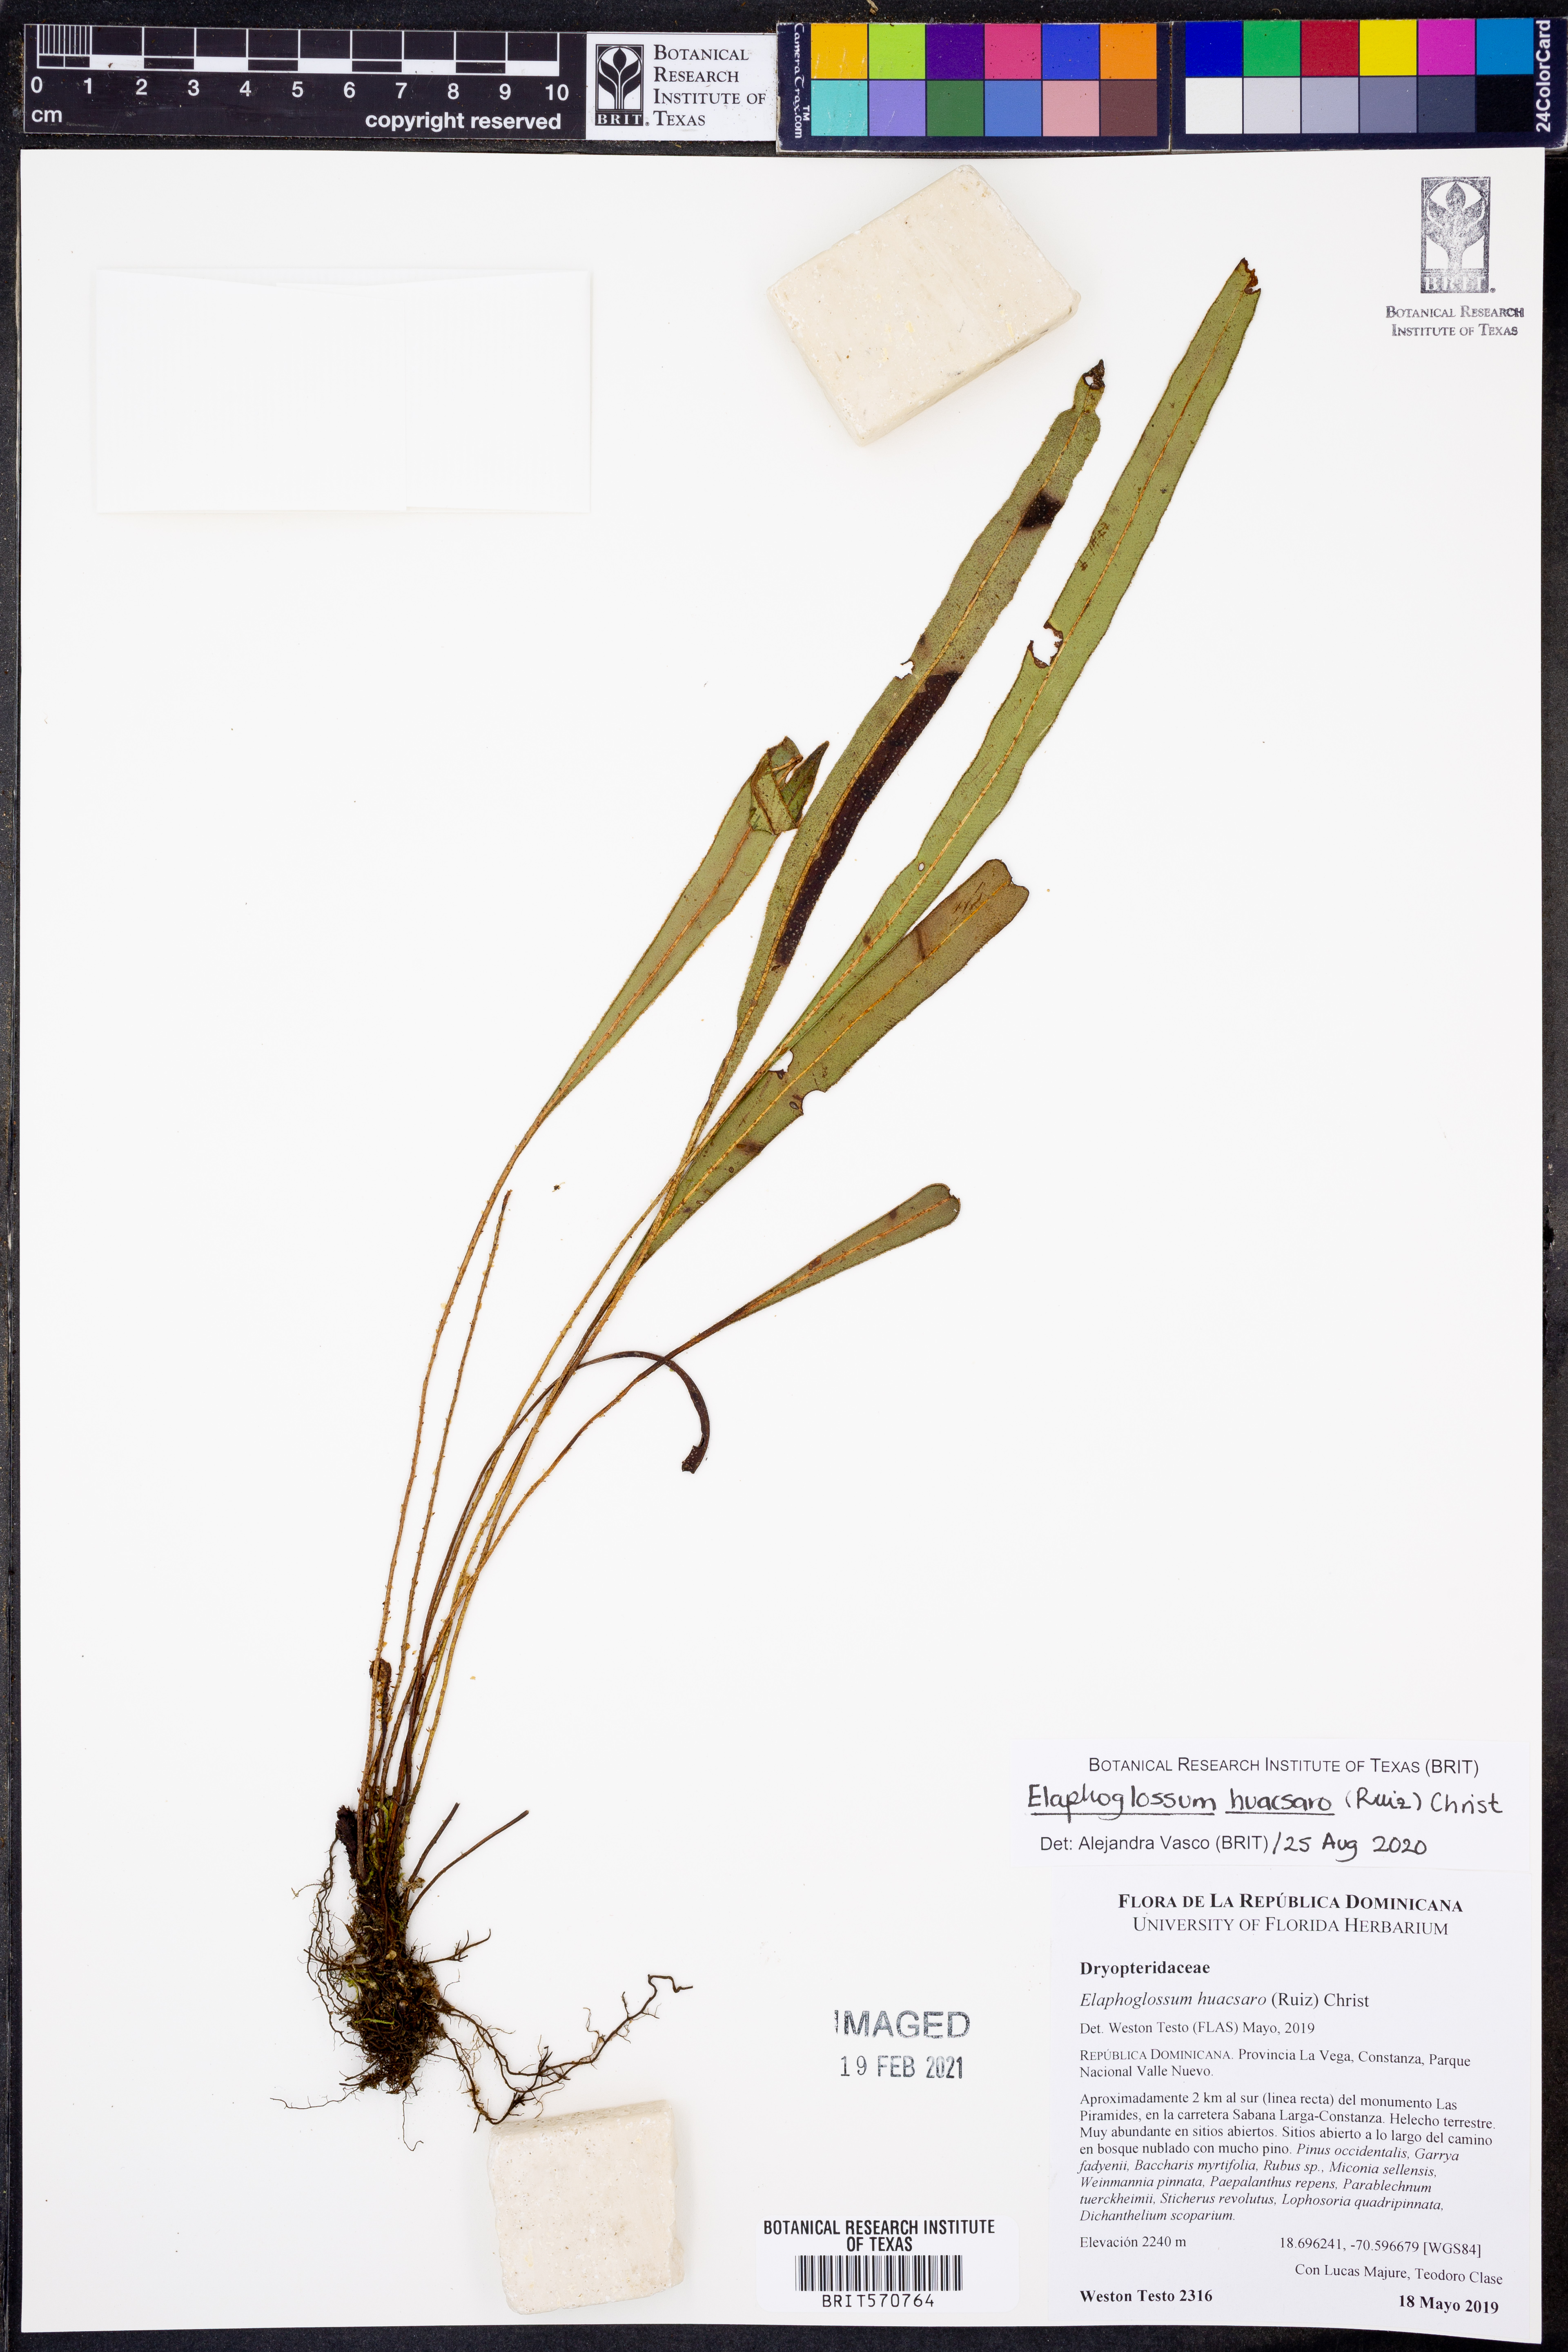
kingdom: Plantae
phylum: Tracheophyta
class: Polypodiopsida
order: Polypodiales
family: Dryopteridaceae
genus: Elaphoglossum
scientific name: Elaphoglossum huacsaro
